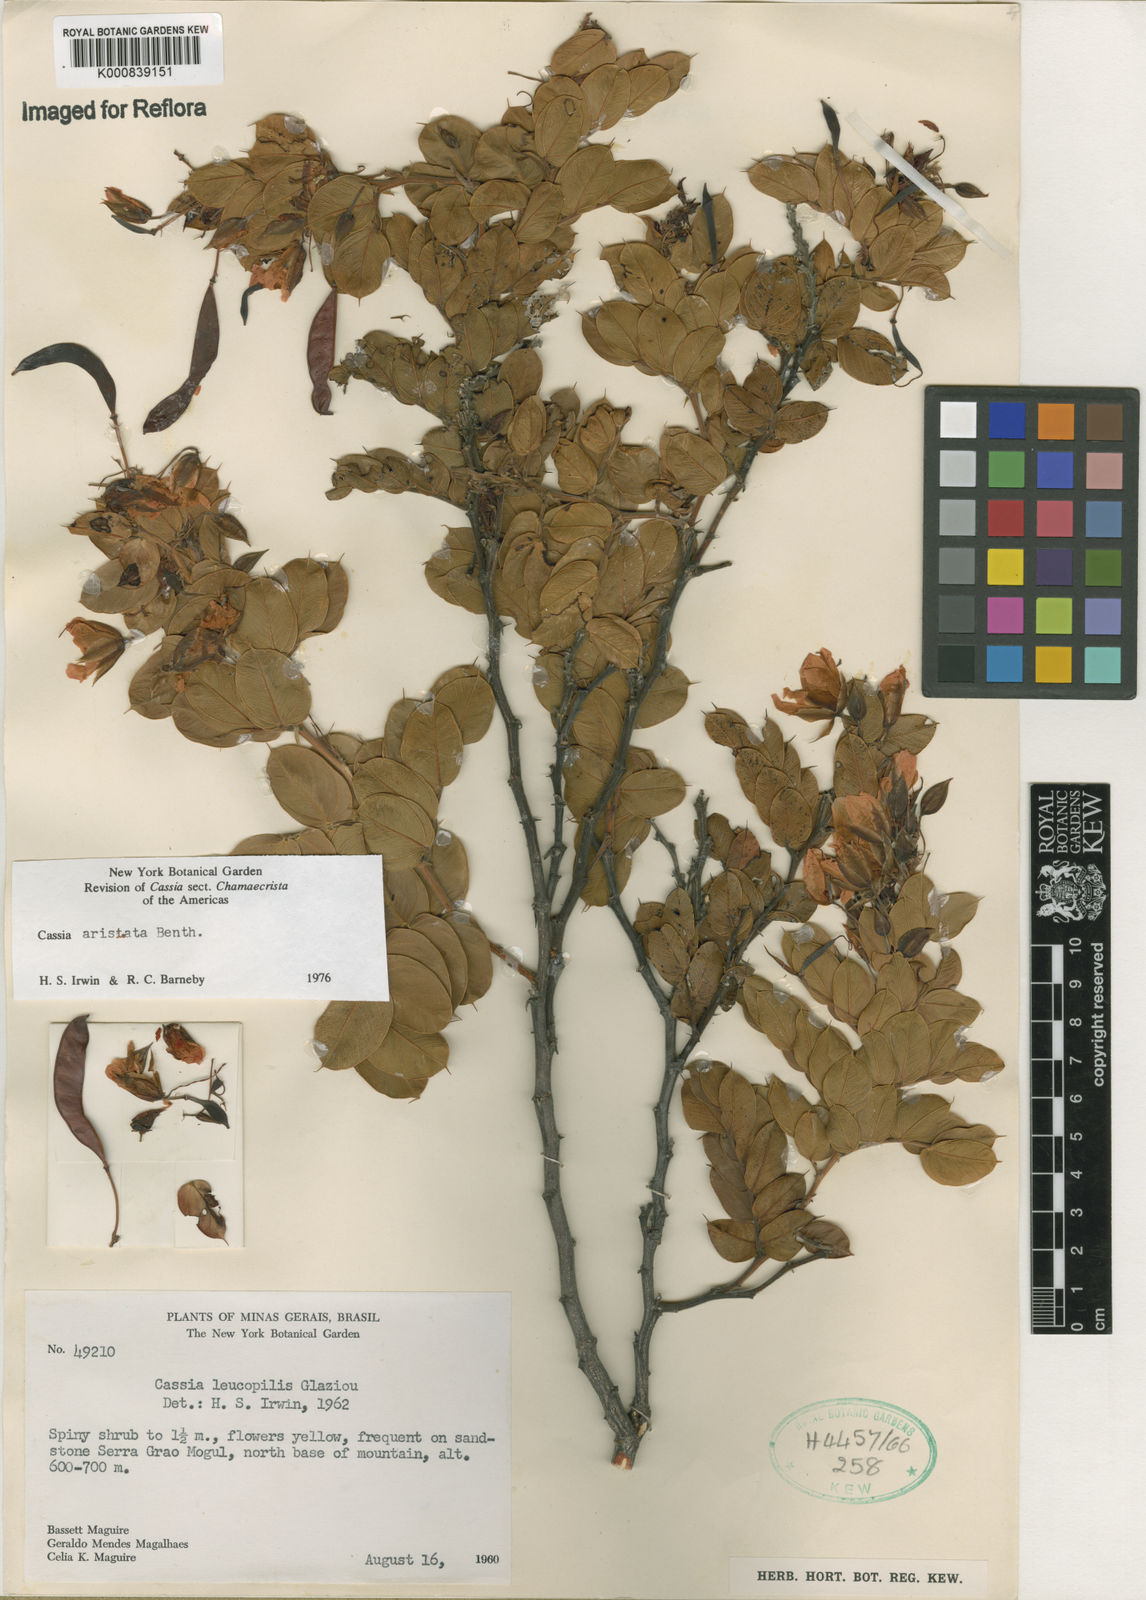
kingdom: Plantae
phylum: Tracheophyta
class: Magnoliopsida
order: Fabales
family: Fabaceae
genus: Chamaecrista
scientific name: Chamaecrista aristata
